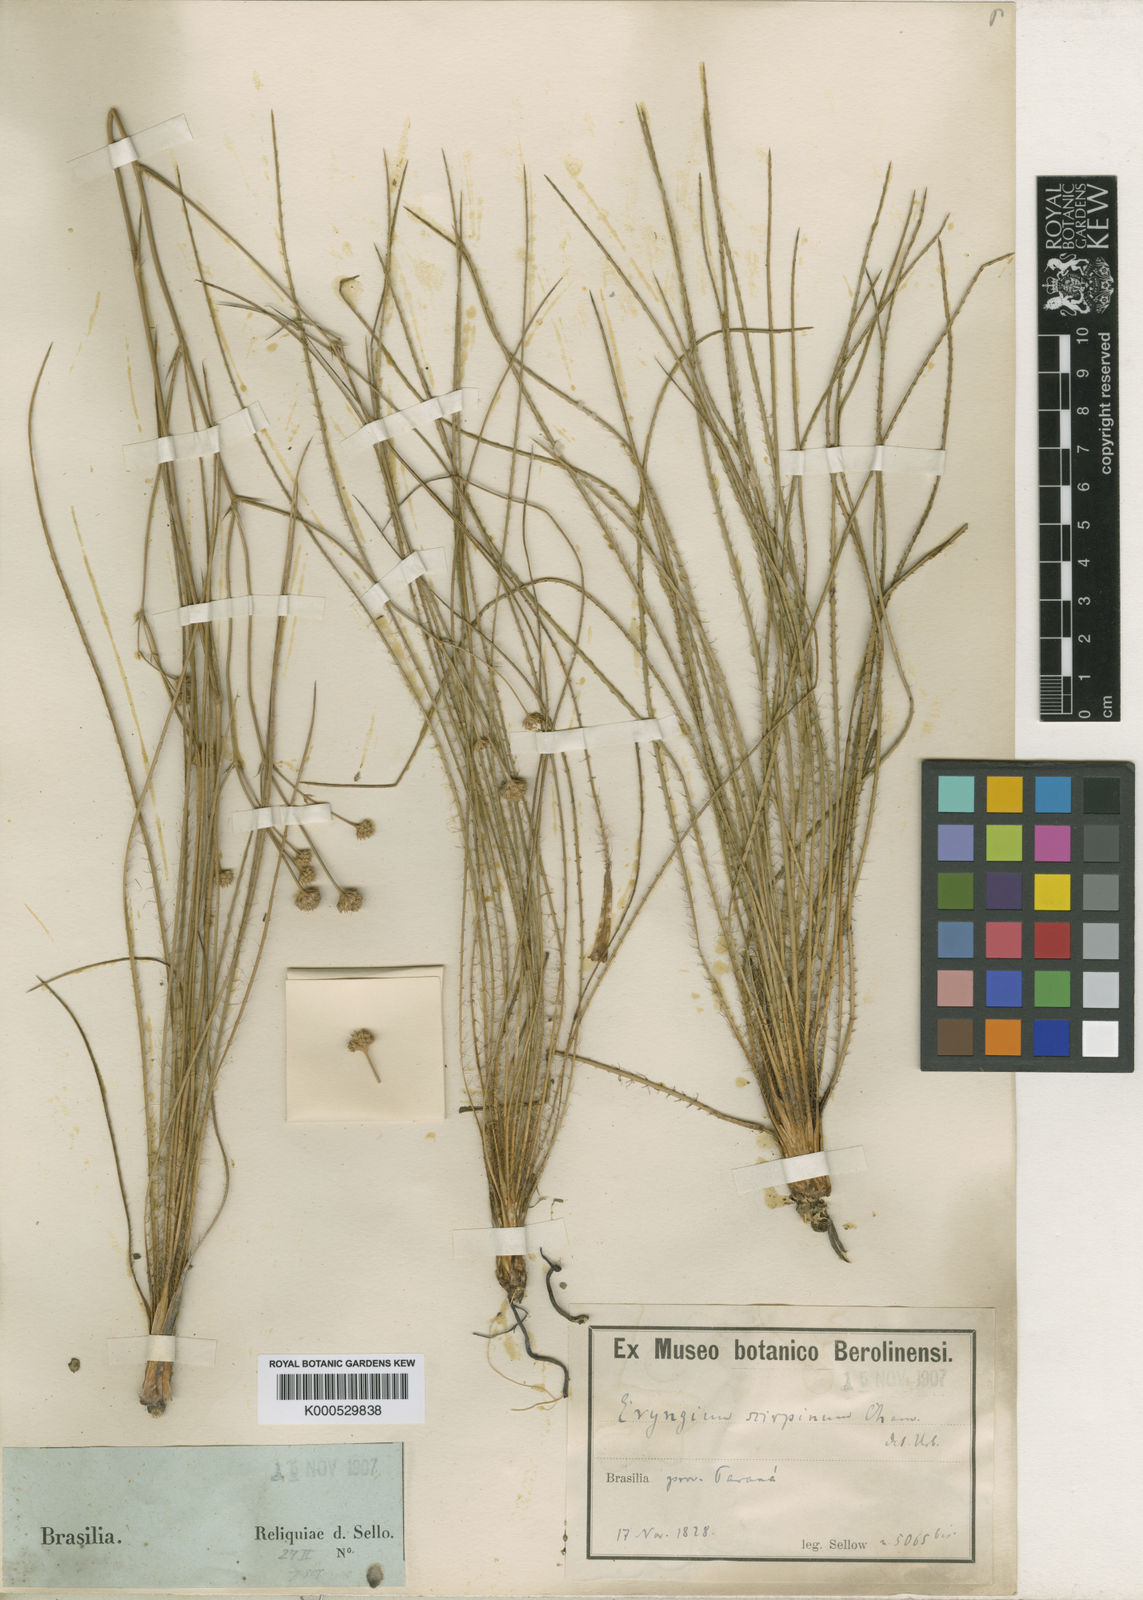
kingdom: Plantae
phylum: Tracheophyta
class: Magnoliopsida
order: Apiales
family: Apiaceae
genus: Eryngium
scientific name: Eryngium scirpinum
